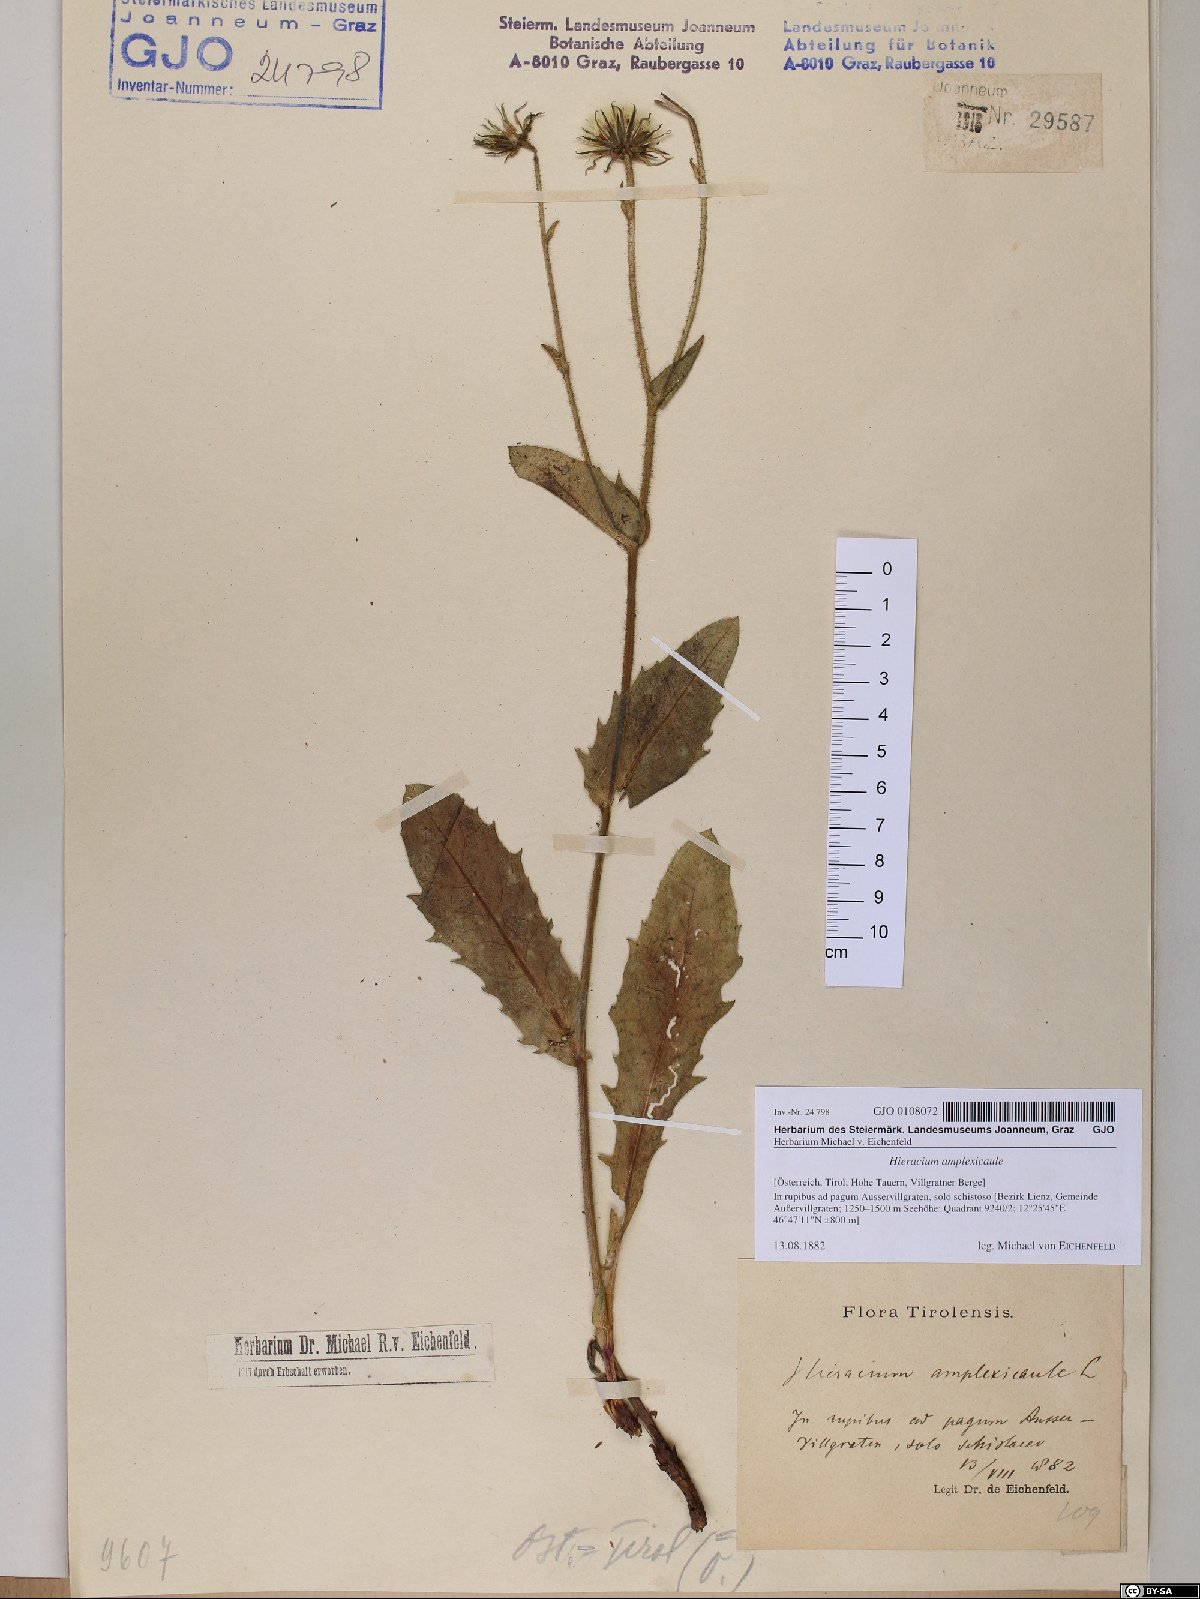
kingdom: Plantae
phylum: Tracheophyta
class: Magnoliopsida
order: Asterales
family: Asteraceae
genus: Hieracium
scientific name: Hieracium amplexicaule
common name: Sticky hawkweed
